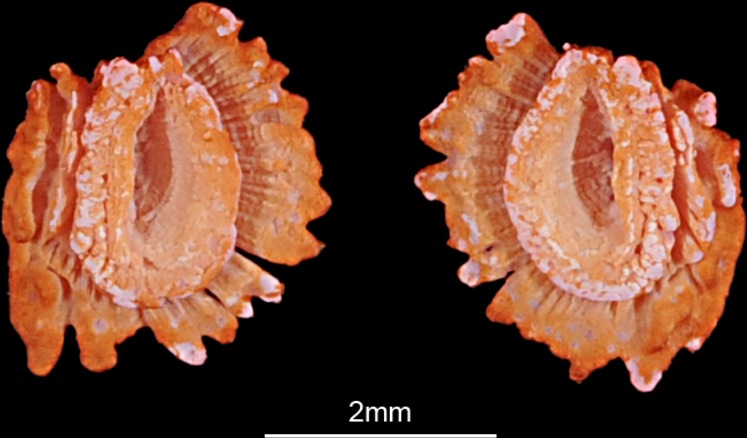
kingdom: Animalia
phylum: Chordata
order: Perciformes
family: Cichlidae
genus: Steatocranus
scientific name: Steatocranus casuarius
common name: Lionhead cichlid
